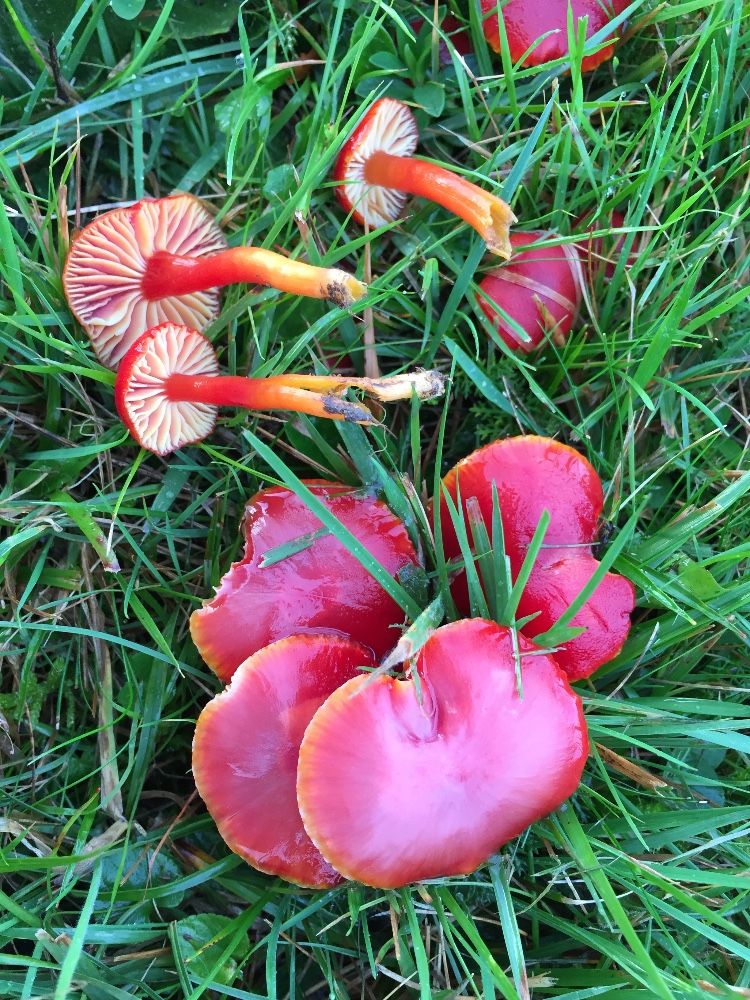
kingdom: Fungi
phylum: Basidiomycota
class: Agaricomycetes
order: Agaricales
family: Hygrophoraceae
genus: Hygrocybe
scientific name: Hygrocybe coccinea
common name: cinnober-vokshat
